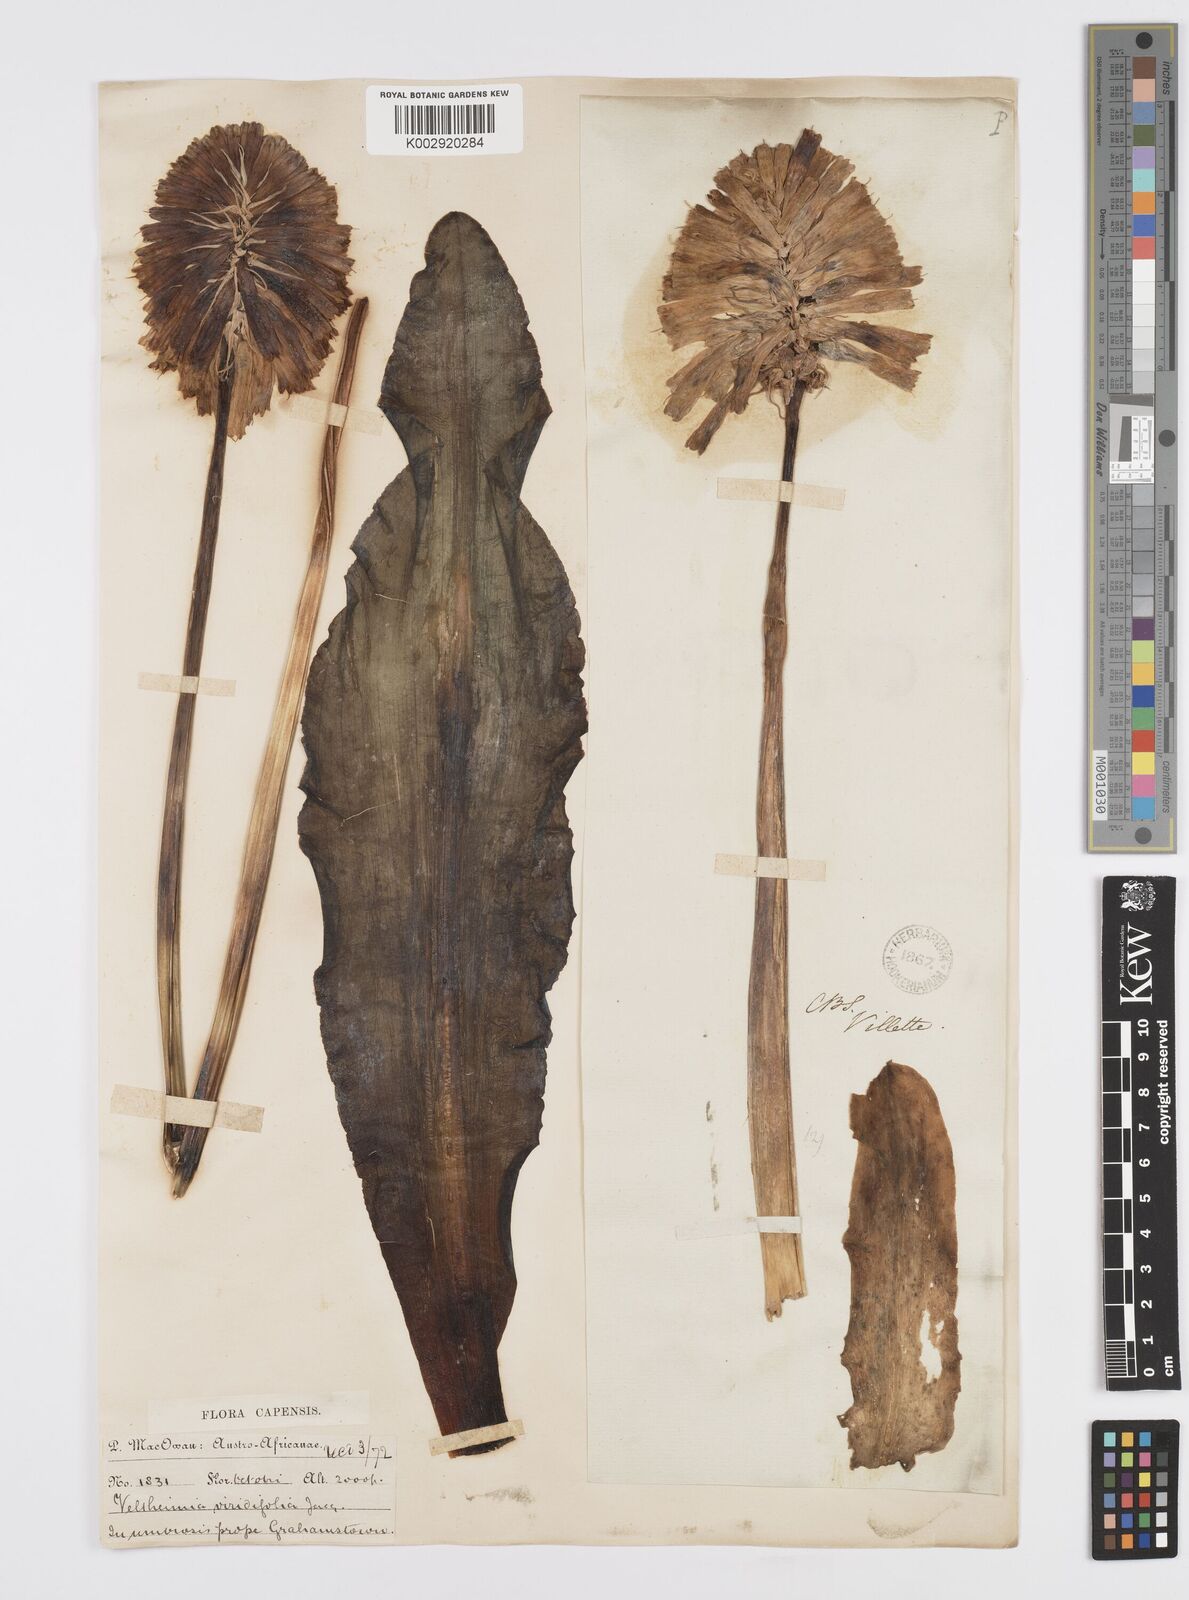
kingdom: Plantae
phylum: Tracheophyta
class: Liliopsida
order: Asparagales
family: Asparagaceae
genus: Veltheimia
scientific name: Veltheimia bracteata
